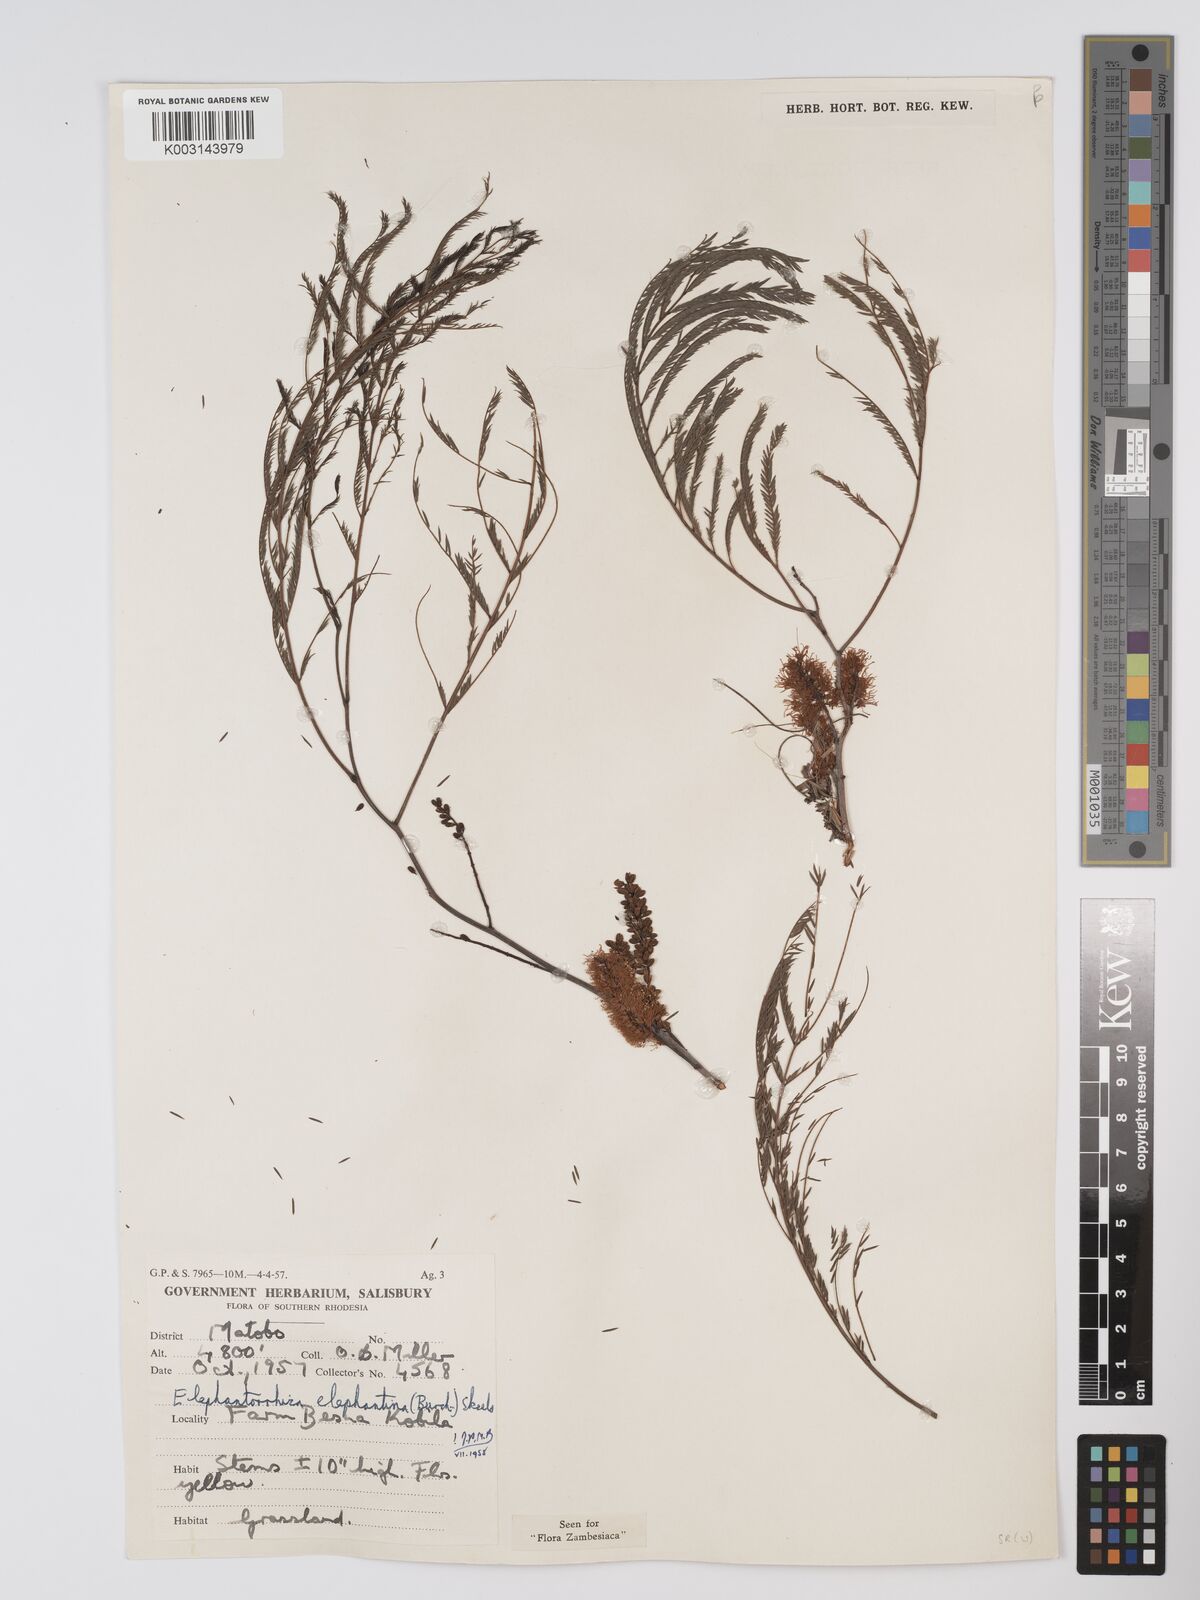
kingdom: Plantae
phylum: Tracheophyta
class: Magnoliopsida
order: Fabales
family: Fabaceae
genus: Elephantorrhiza
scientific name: Elephantorrhiza elephantina
